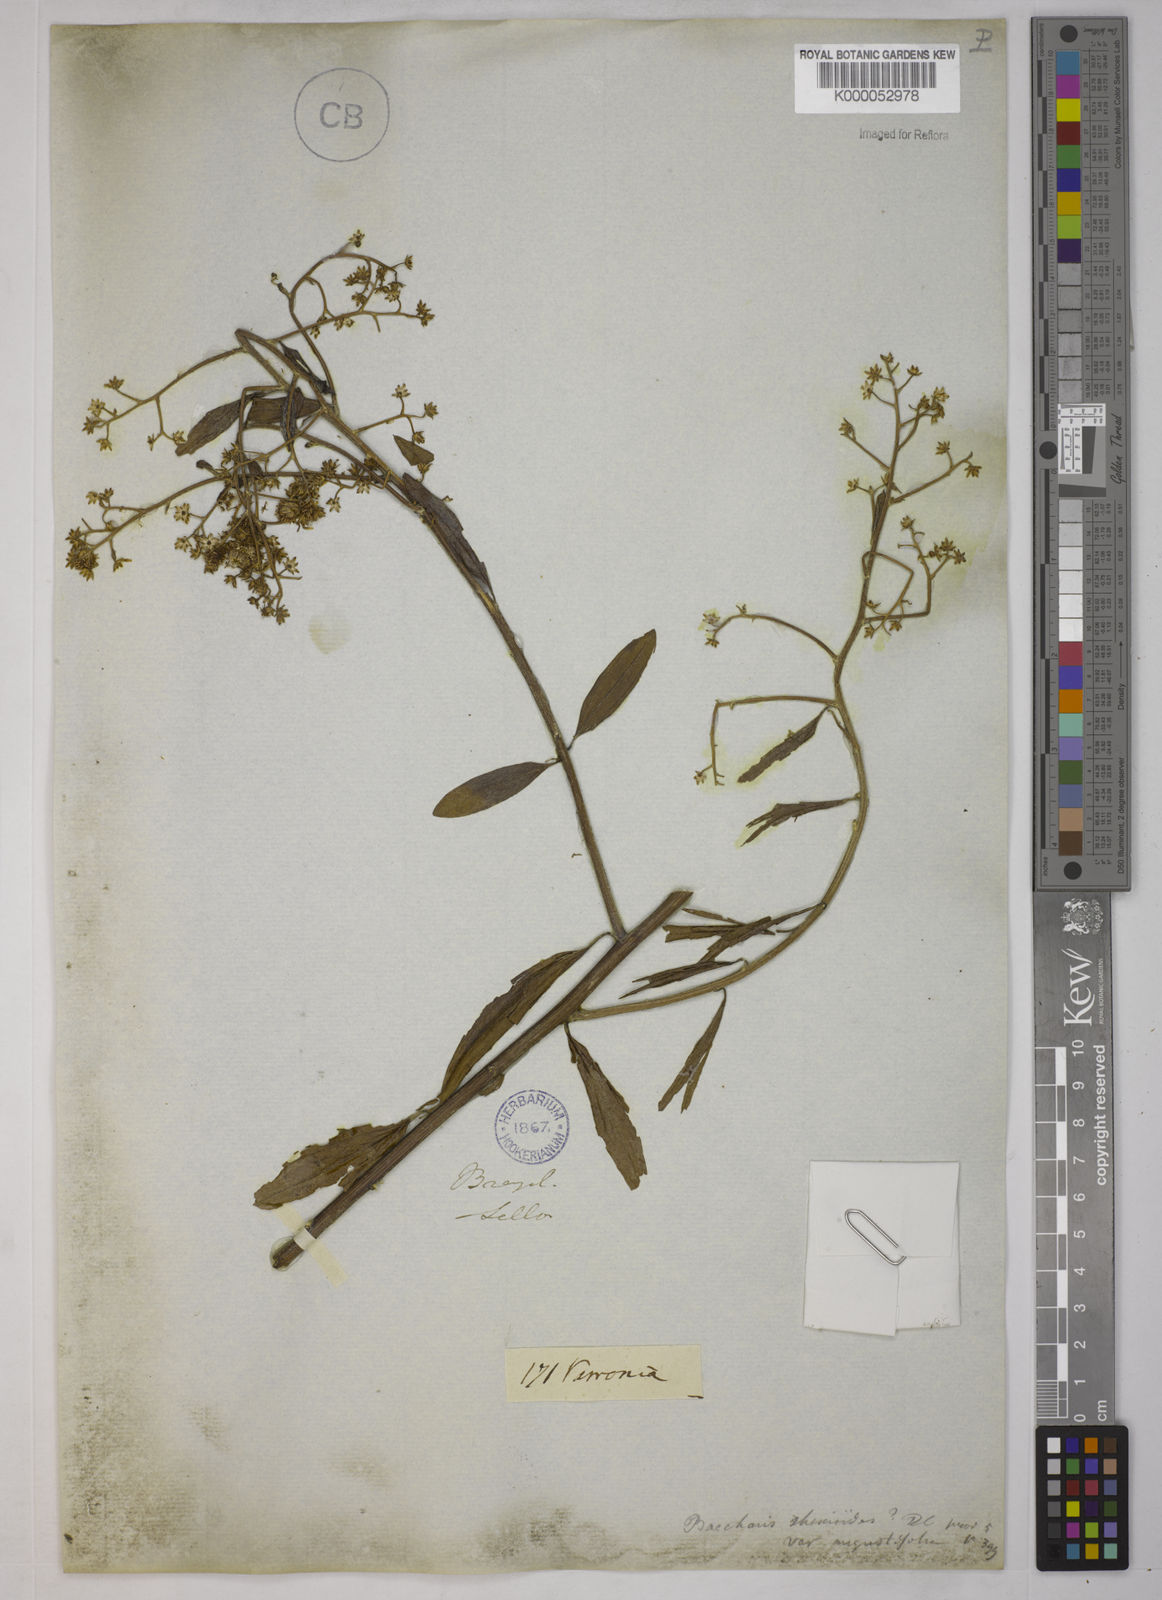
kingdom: Plantae
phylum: Tracheophyta
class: Magnoliopsida
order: Asterales
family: Asteraceae
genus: Baccharis
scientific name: Baccharis trinervis
